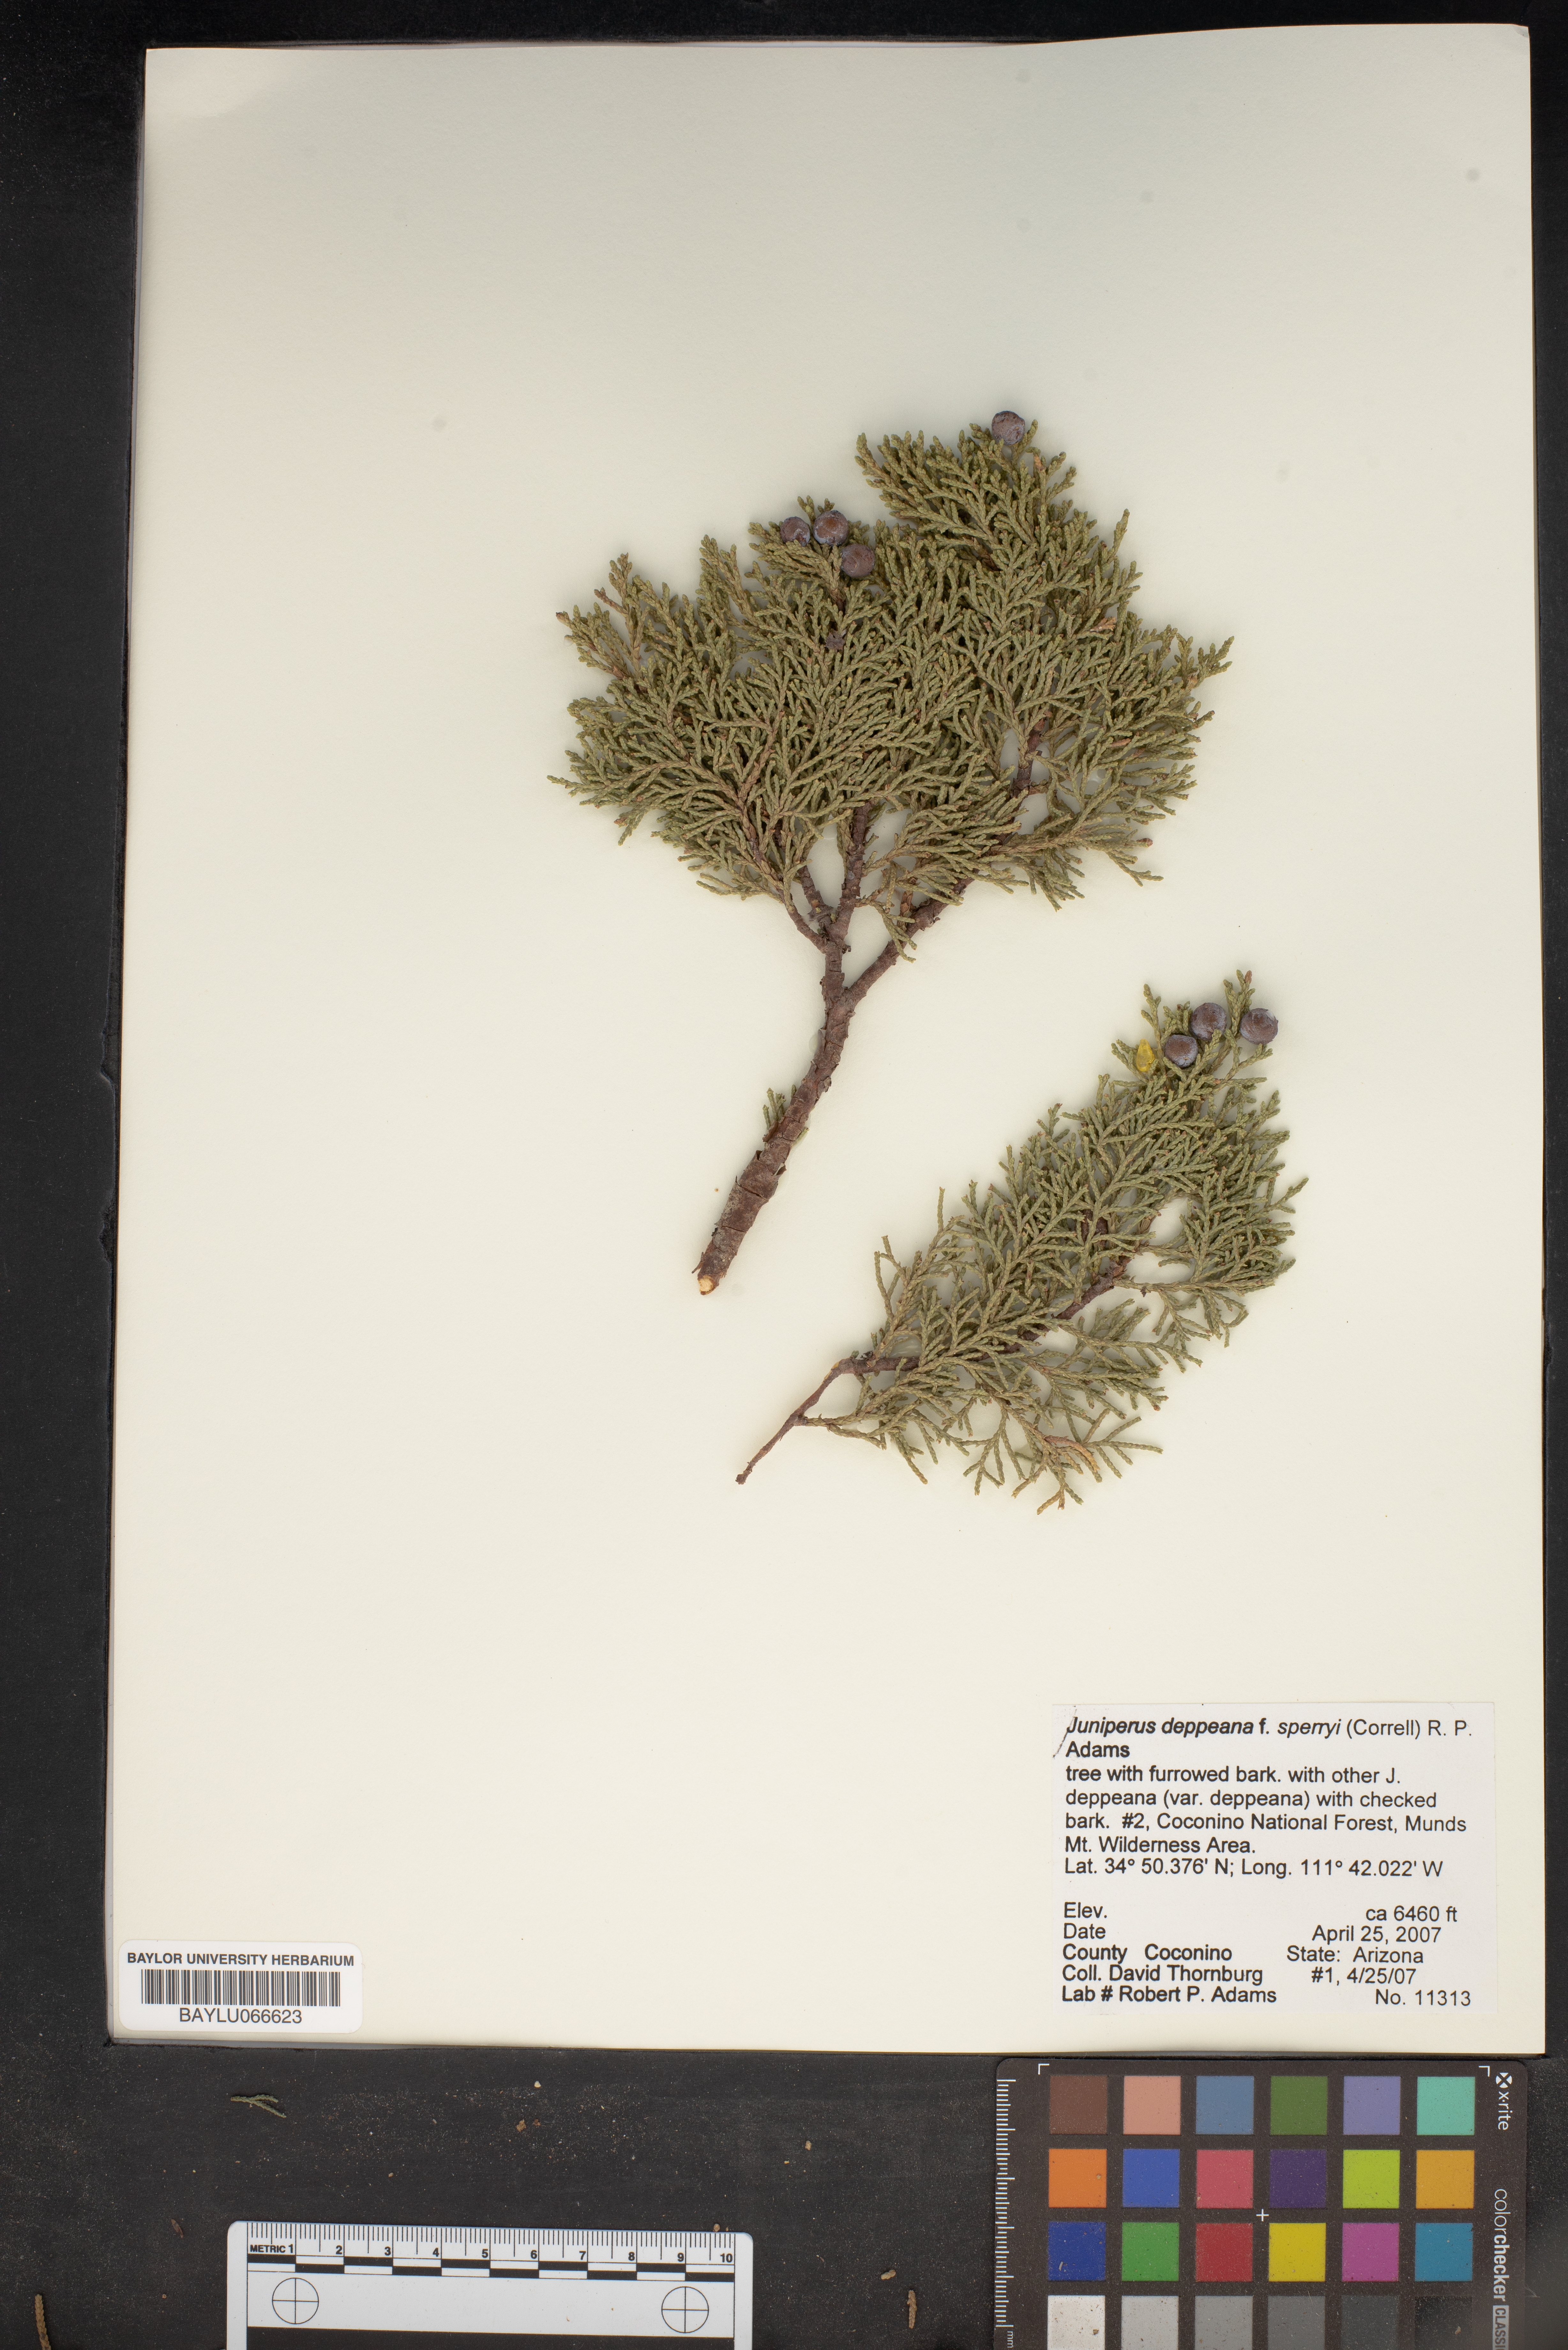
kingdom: Plantae
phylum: Tracheophyta
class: Pinopsida
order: Pinales
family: Cupressaceae
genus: Juniperus
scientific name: Juniperus deppeana
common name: Alligator juniper
